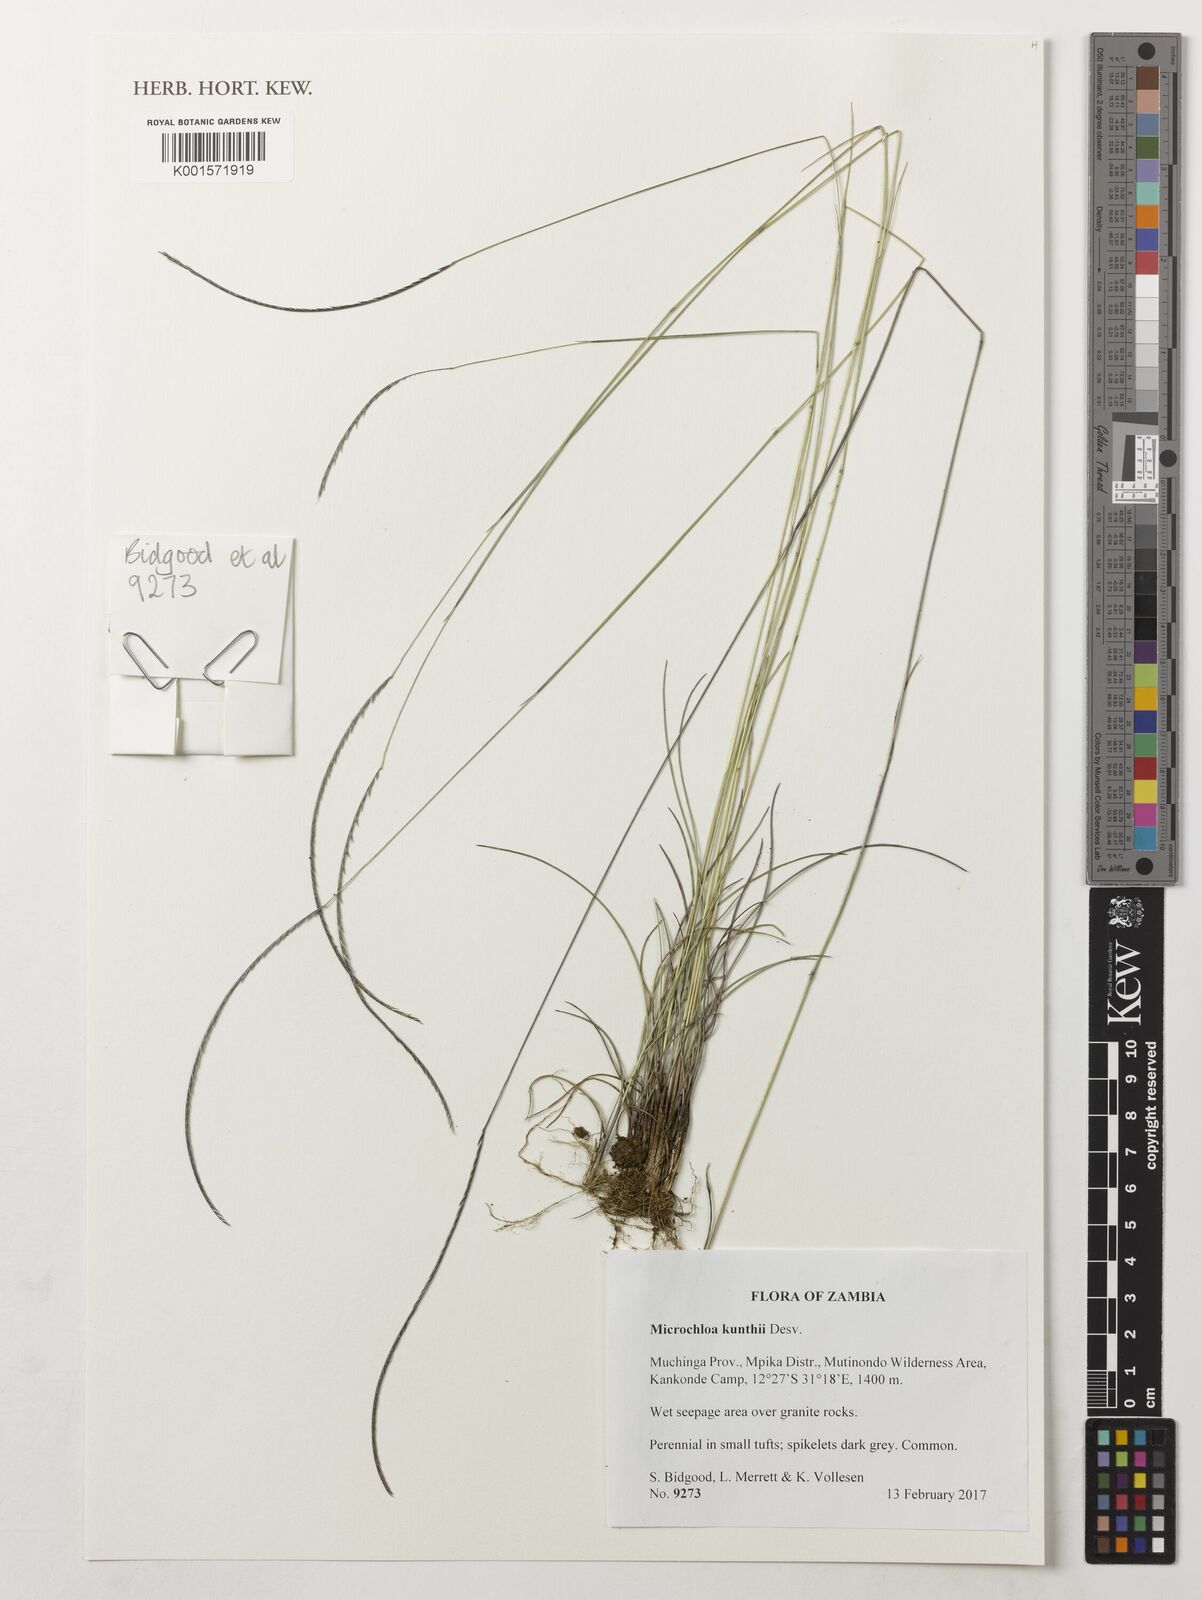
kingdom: Plantae
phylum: Tracheophyta
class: Liliopsida
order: Poales
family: Poaceae
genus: Microchloa
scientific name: Microchloa kunthii
